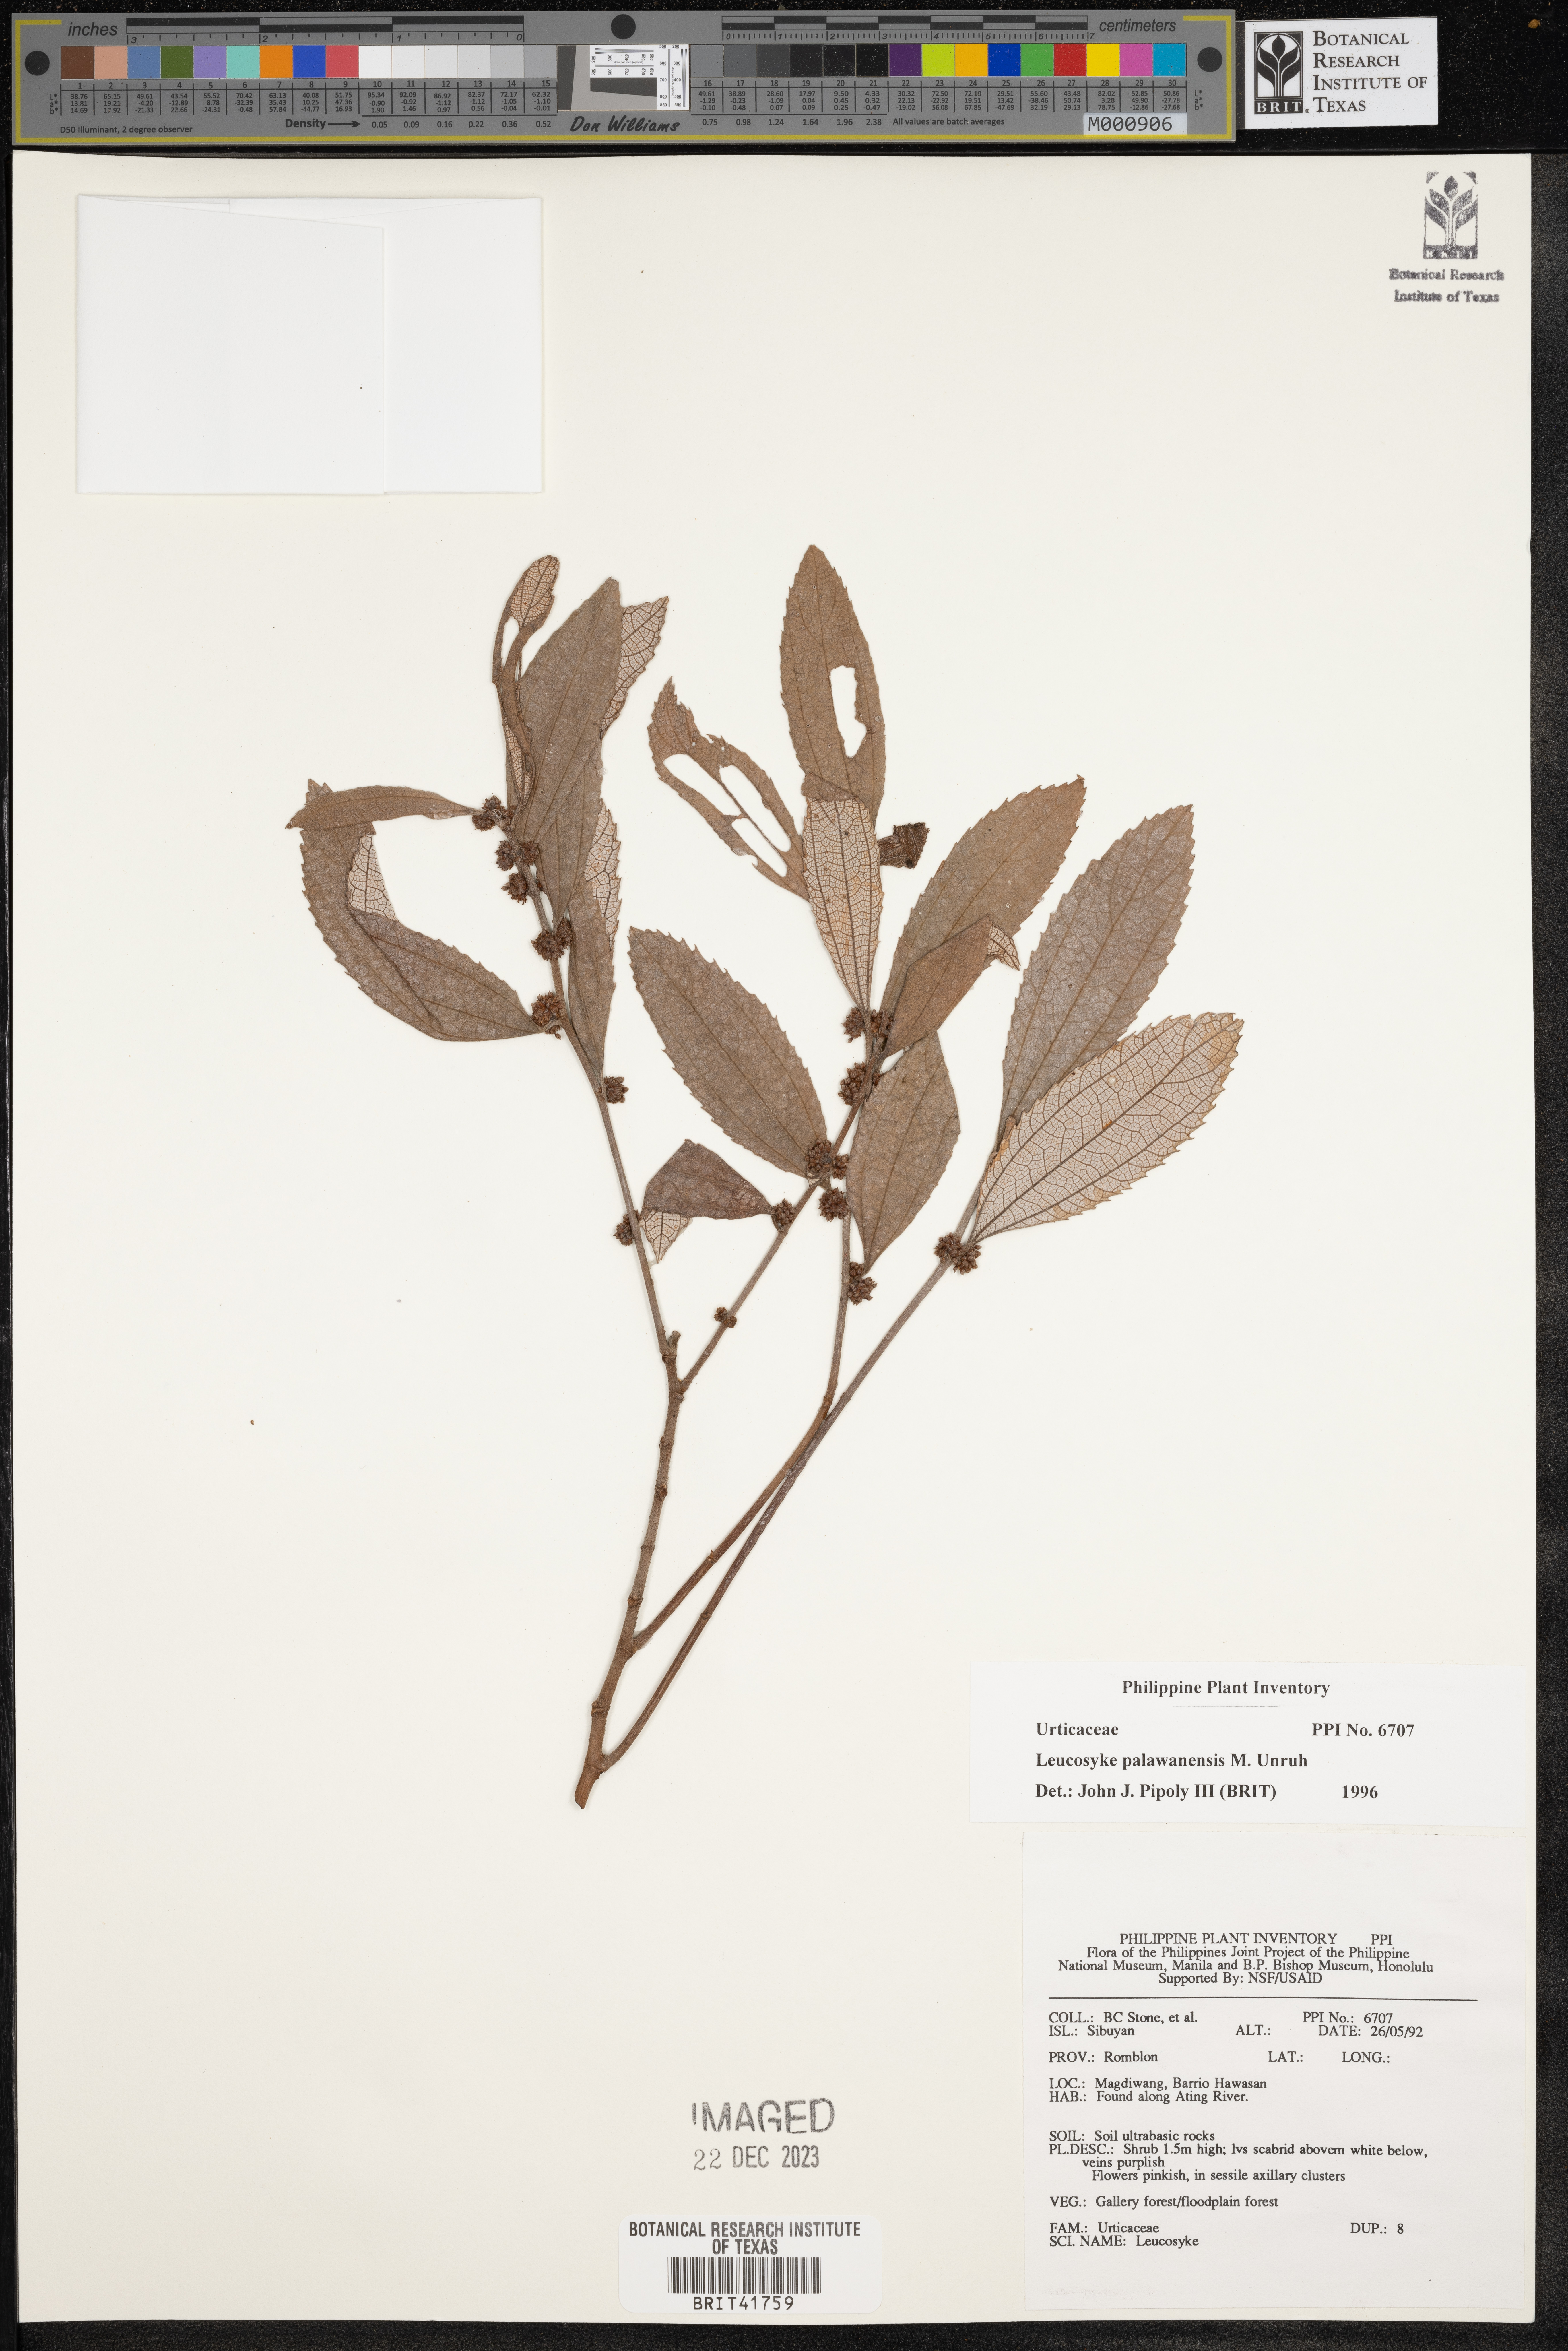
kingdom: Plantae
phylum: Tracheophyta
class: Magnoliopsida
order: Rosales
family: Urticaceae
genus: Leucosyke
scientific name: Leucosyke capitellata
